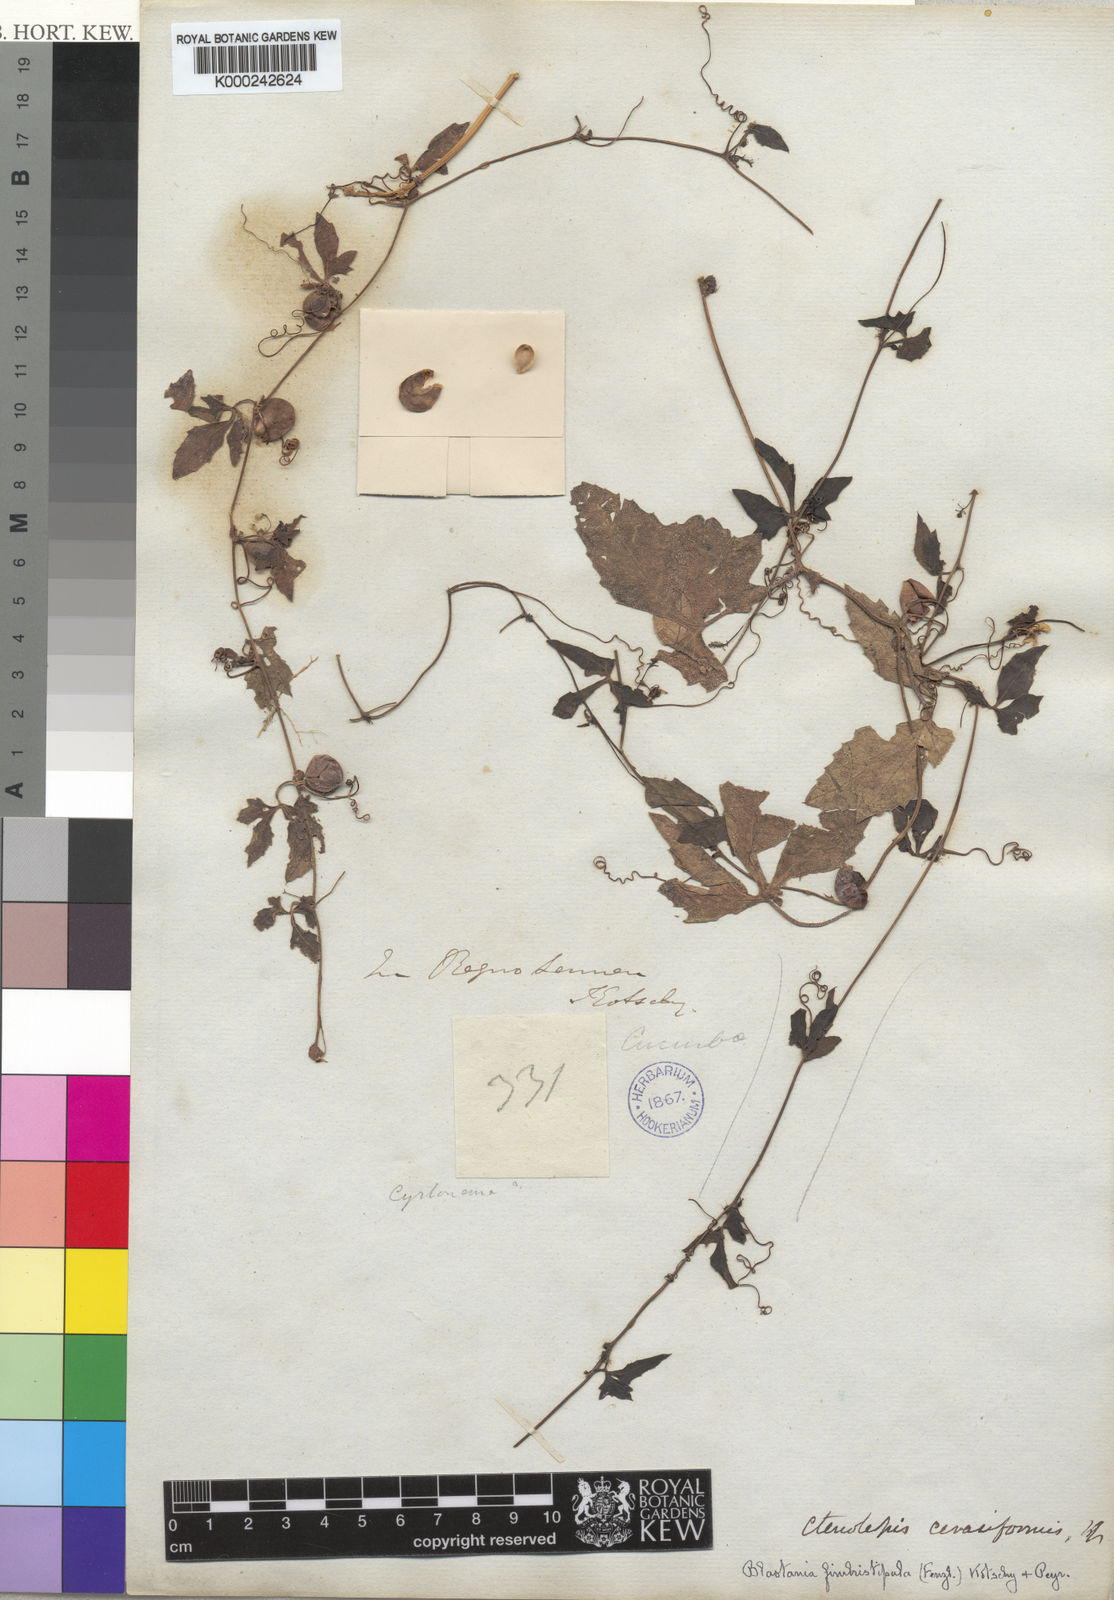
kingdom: Plantae
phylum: Tracheophyta
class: Magnoliopsida
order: Cucurbitales
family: Cucurbitaceae
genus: Blastania
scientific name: Blastania
